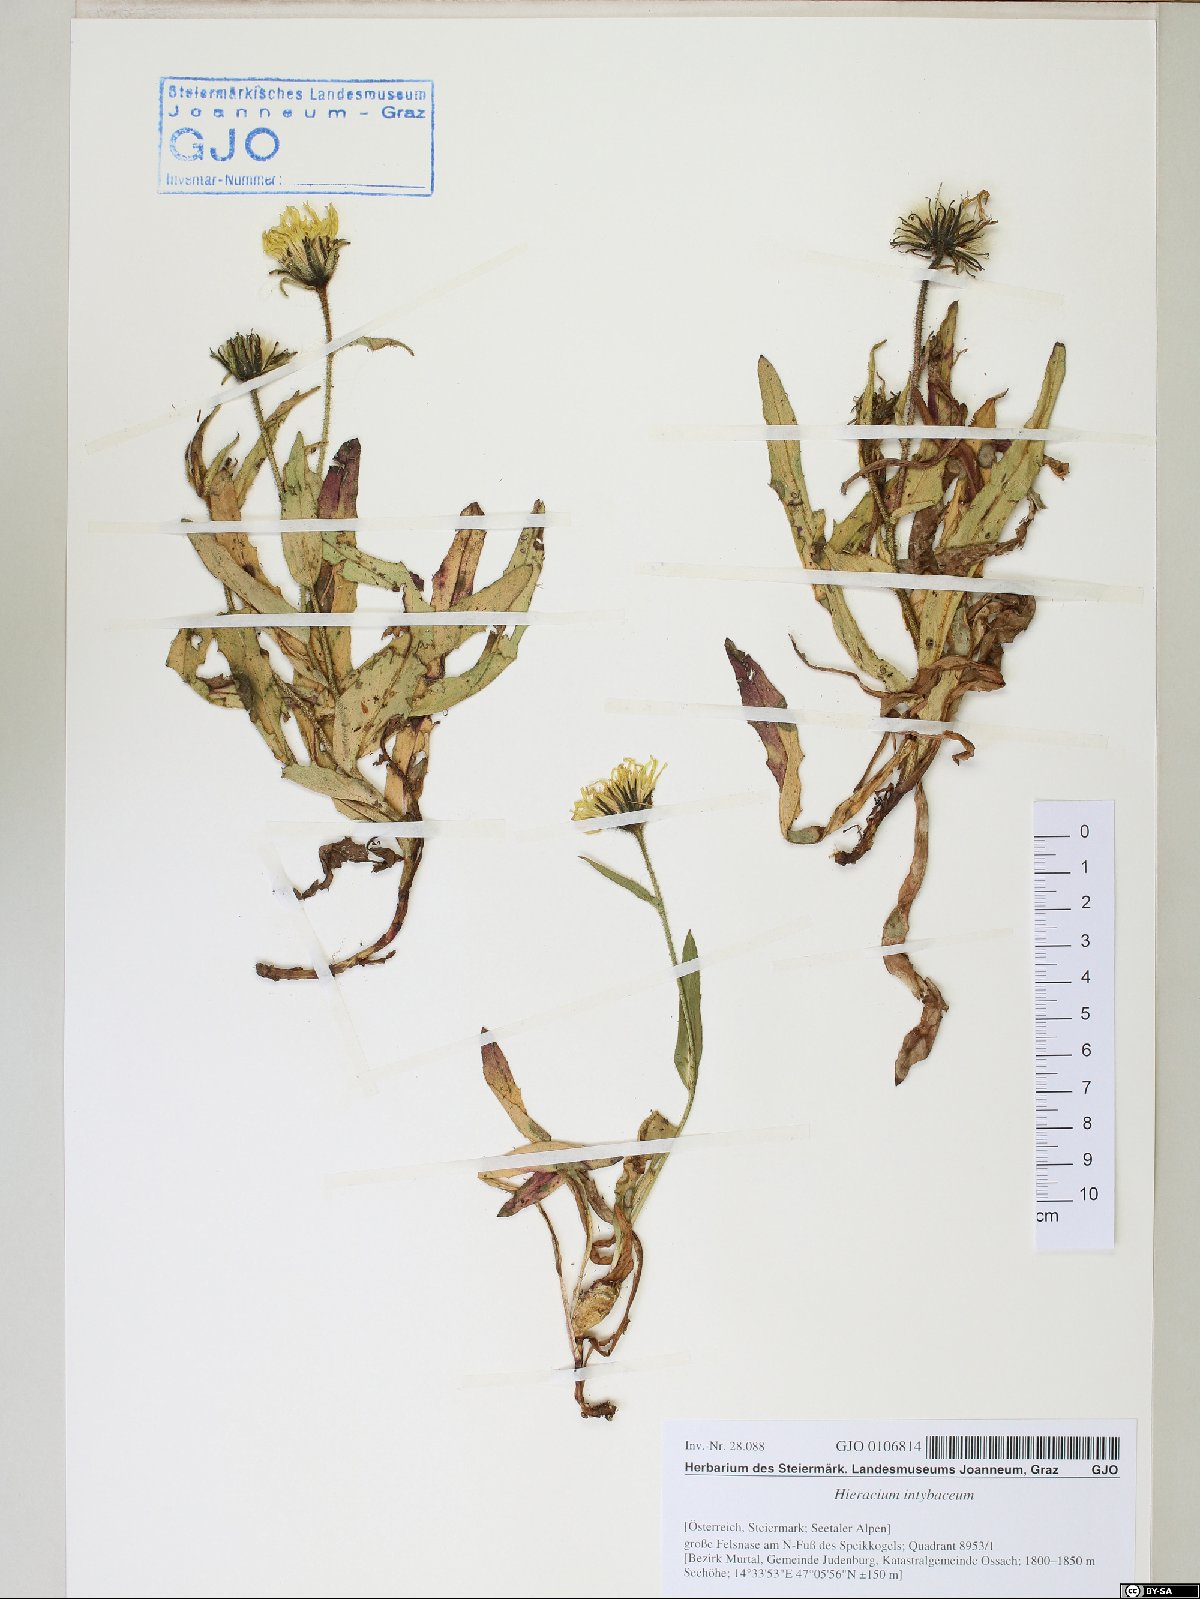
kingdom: Plantae
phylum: Tracheophyta
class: Magnoliopsida
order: Asterales
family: Asteraceae
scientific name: Asteraceae
